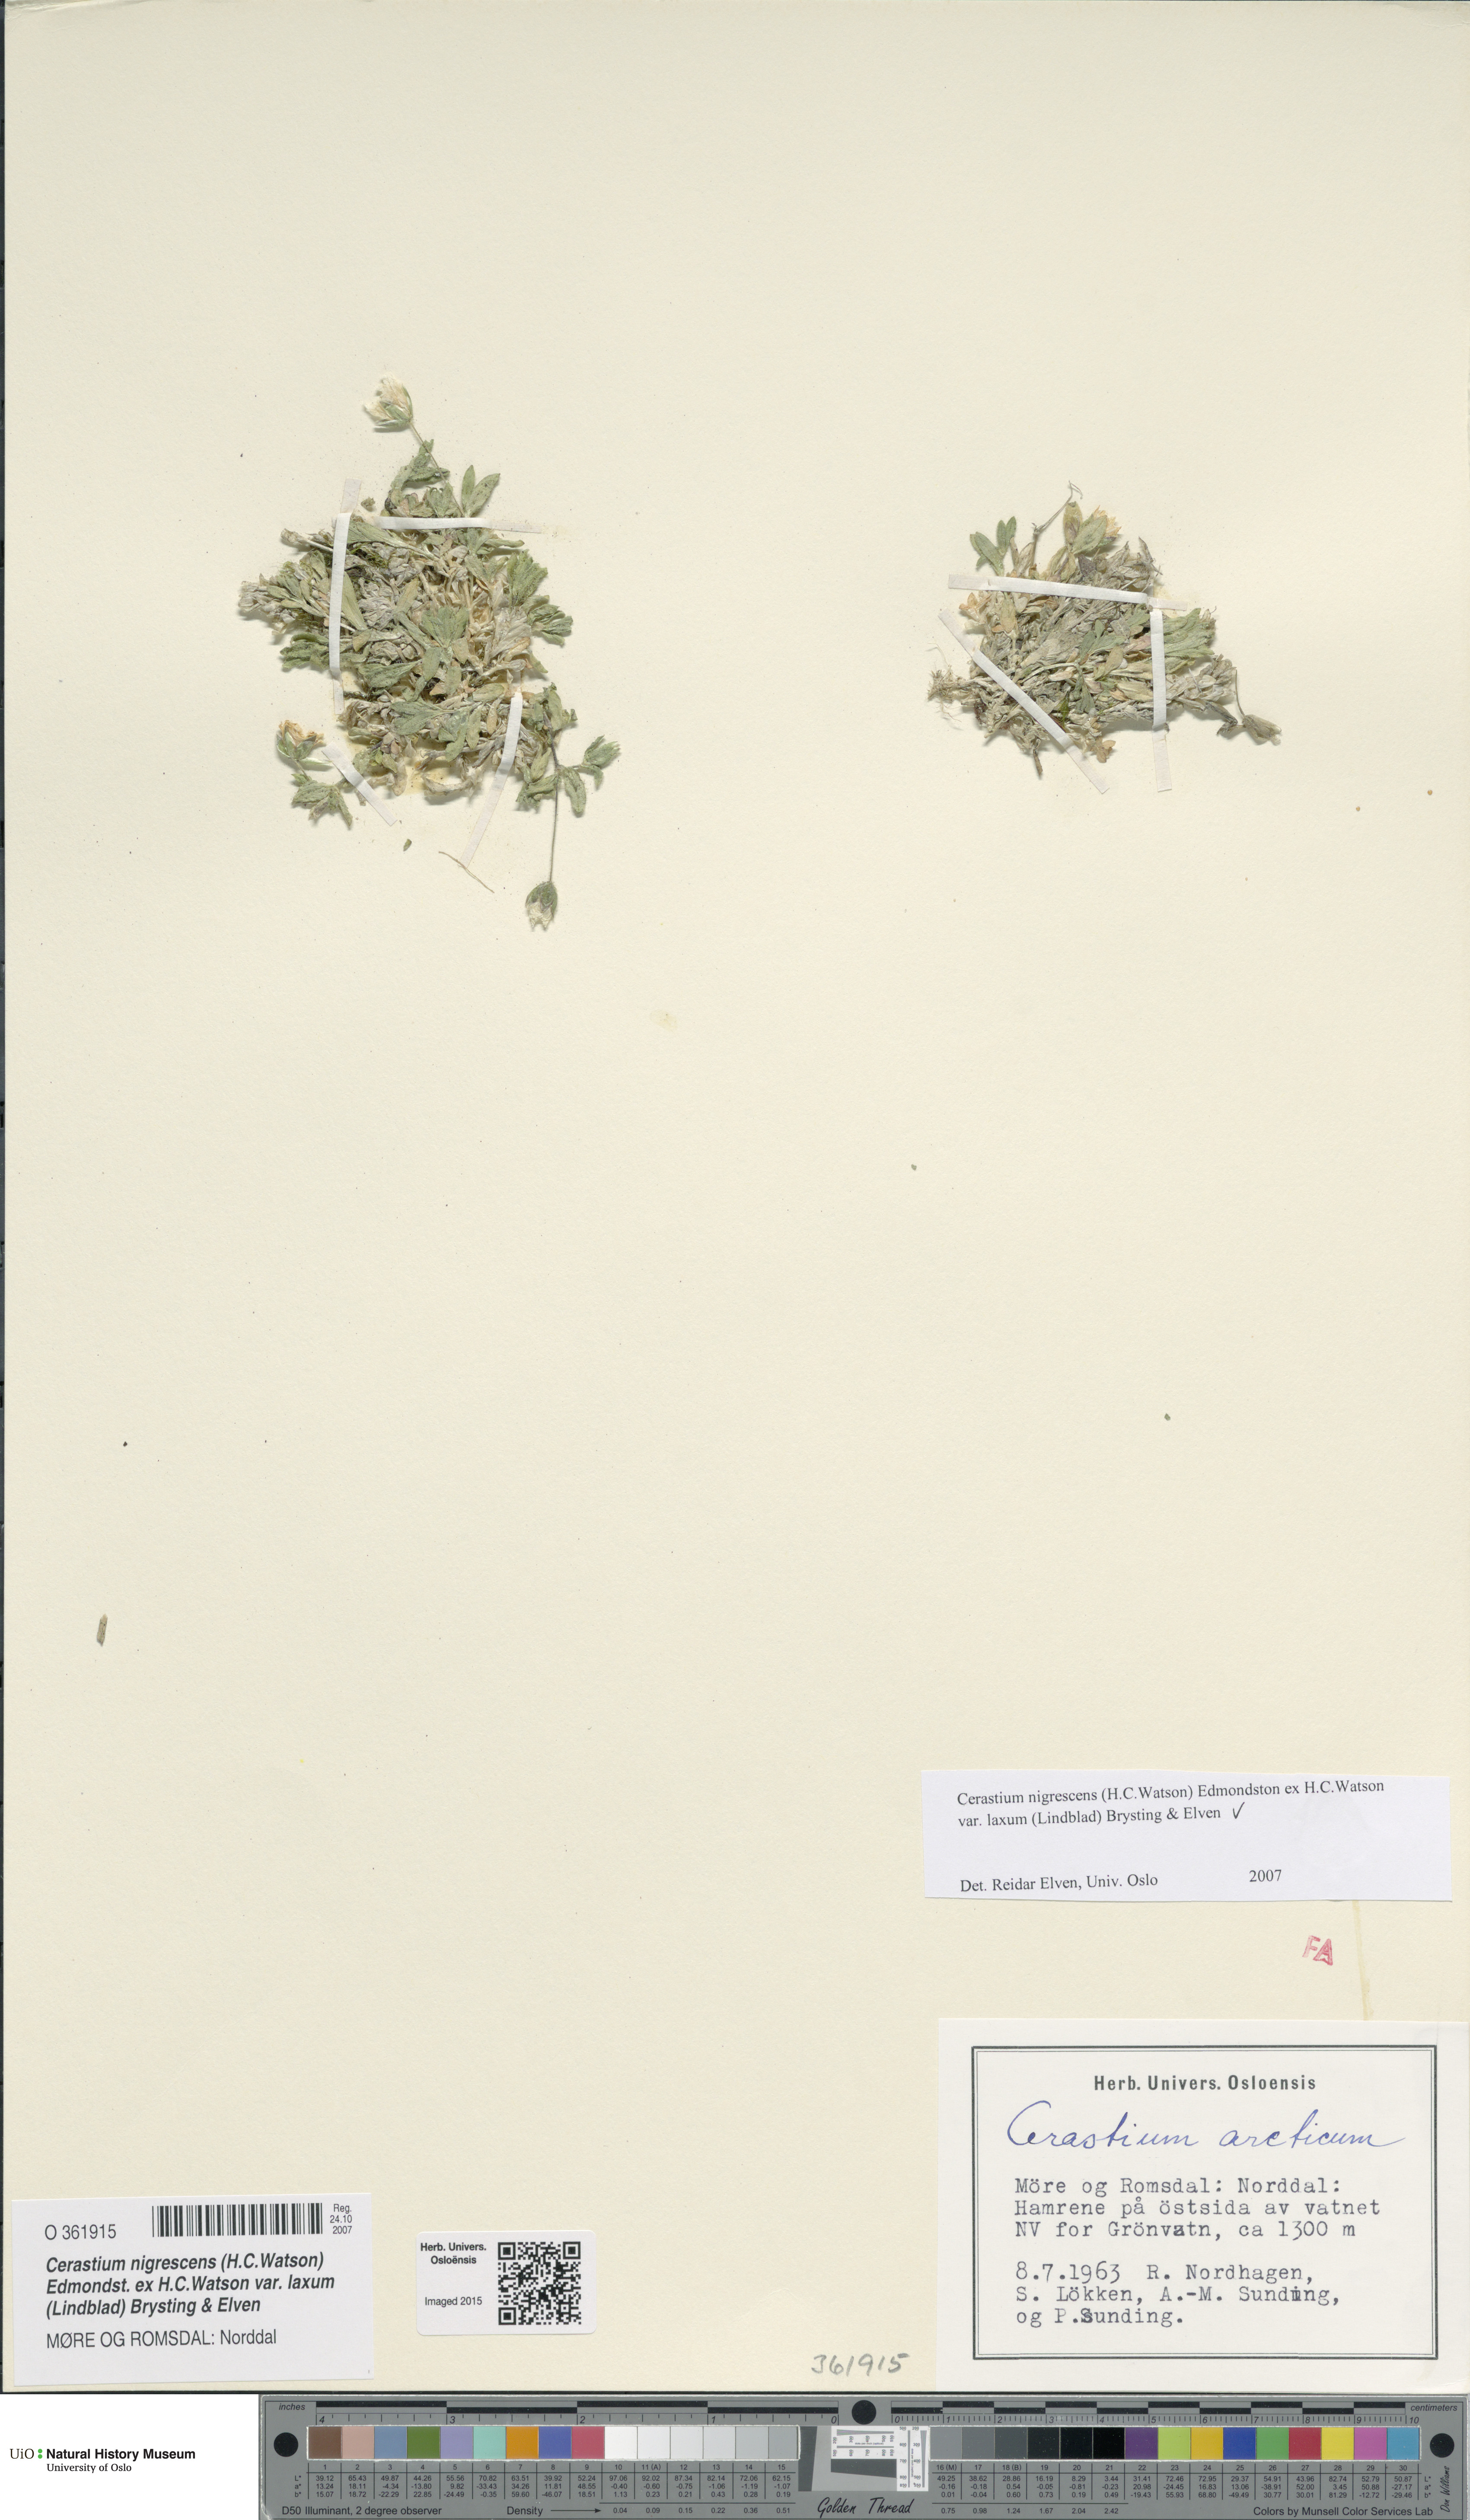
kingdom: Plantae
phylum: Tracheophyta
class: Magnoliopsida
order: Caryophyllales
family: Caryophyllaceae
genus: Cerastium
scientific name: Cerastium nigrescens
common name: Shetland mouse-ear
